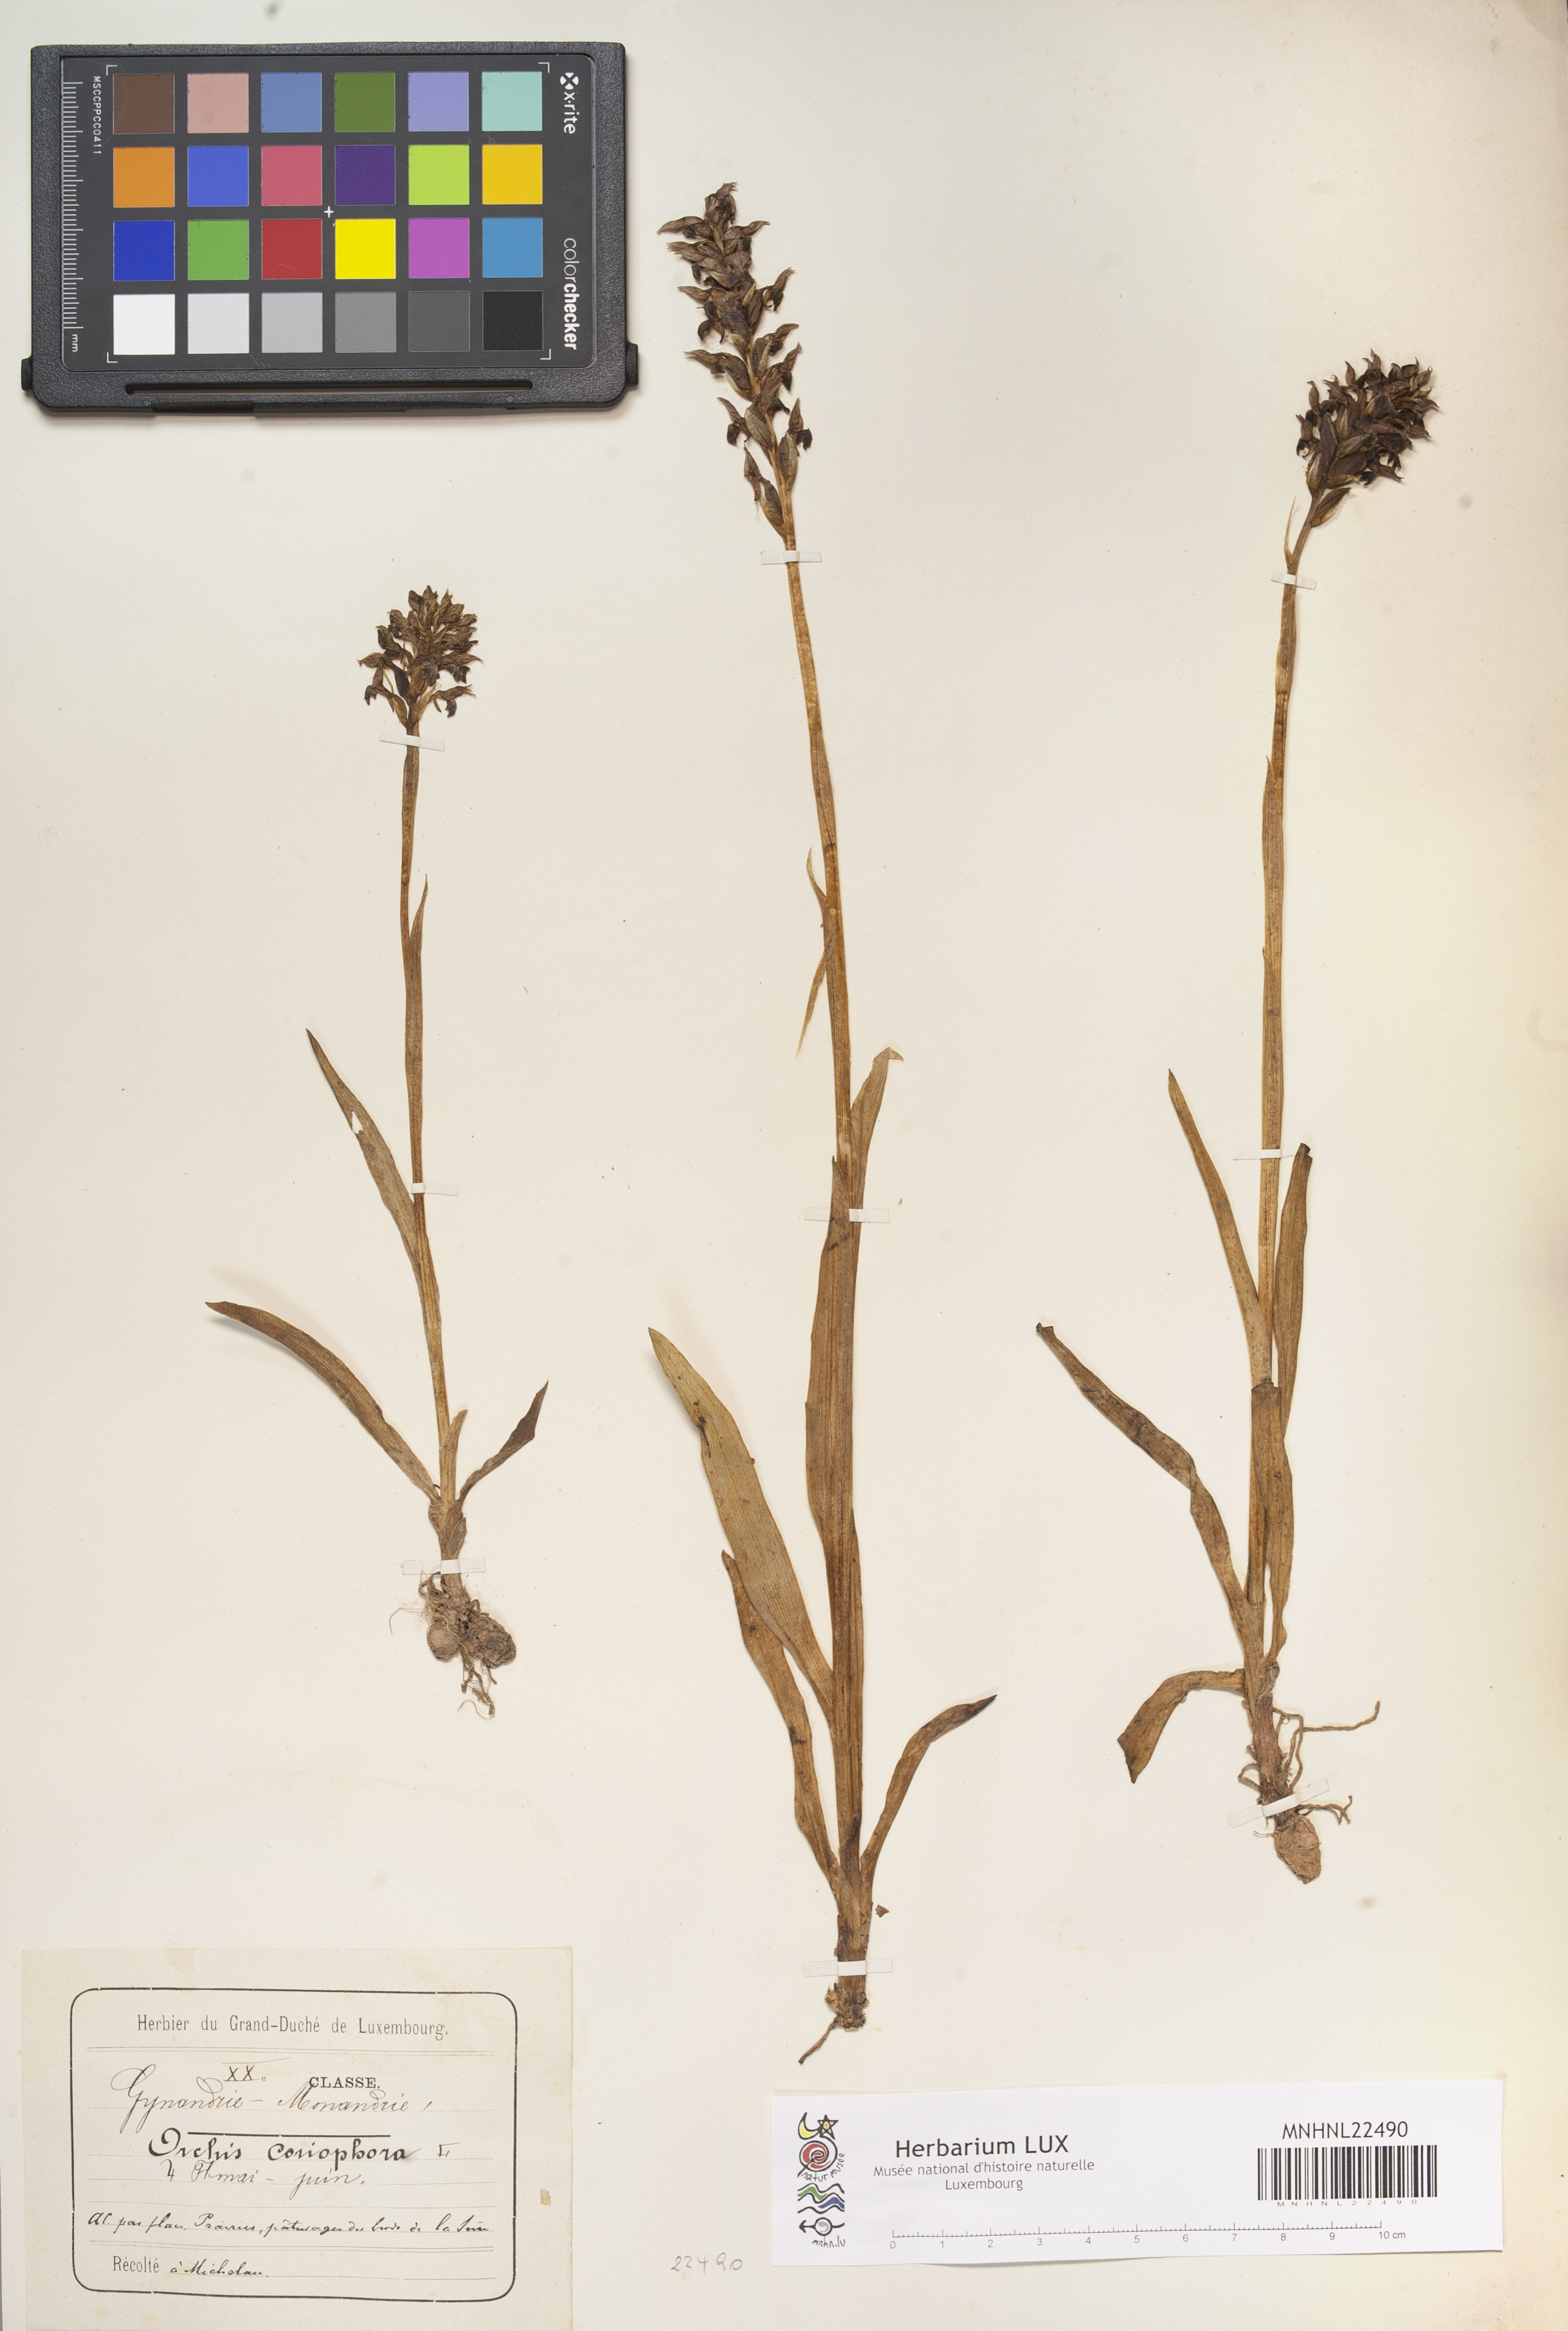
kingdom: Plantae
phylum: Tracheophyta
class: Liliopsida
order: Asparagales
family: Orchidaceae
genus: Anacamptis
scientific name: Anacamptis coriophora
